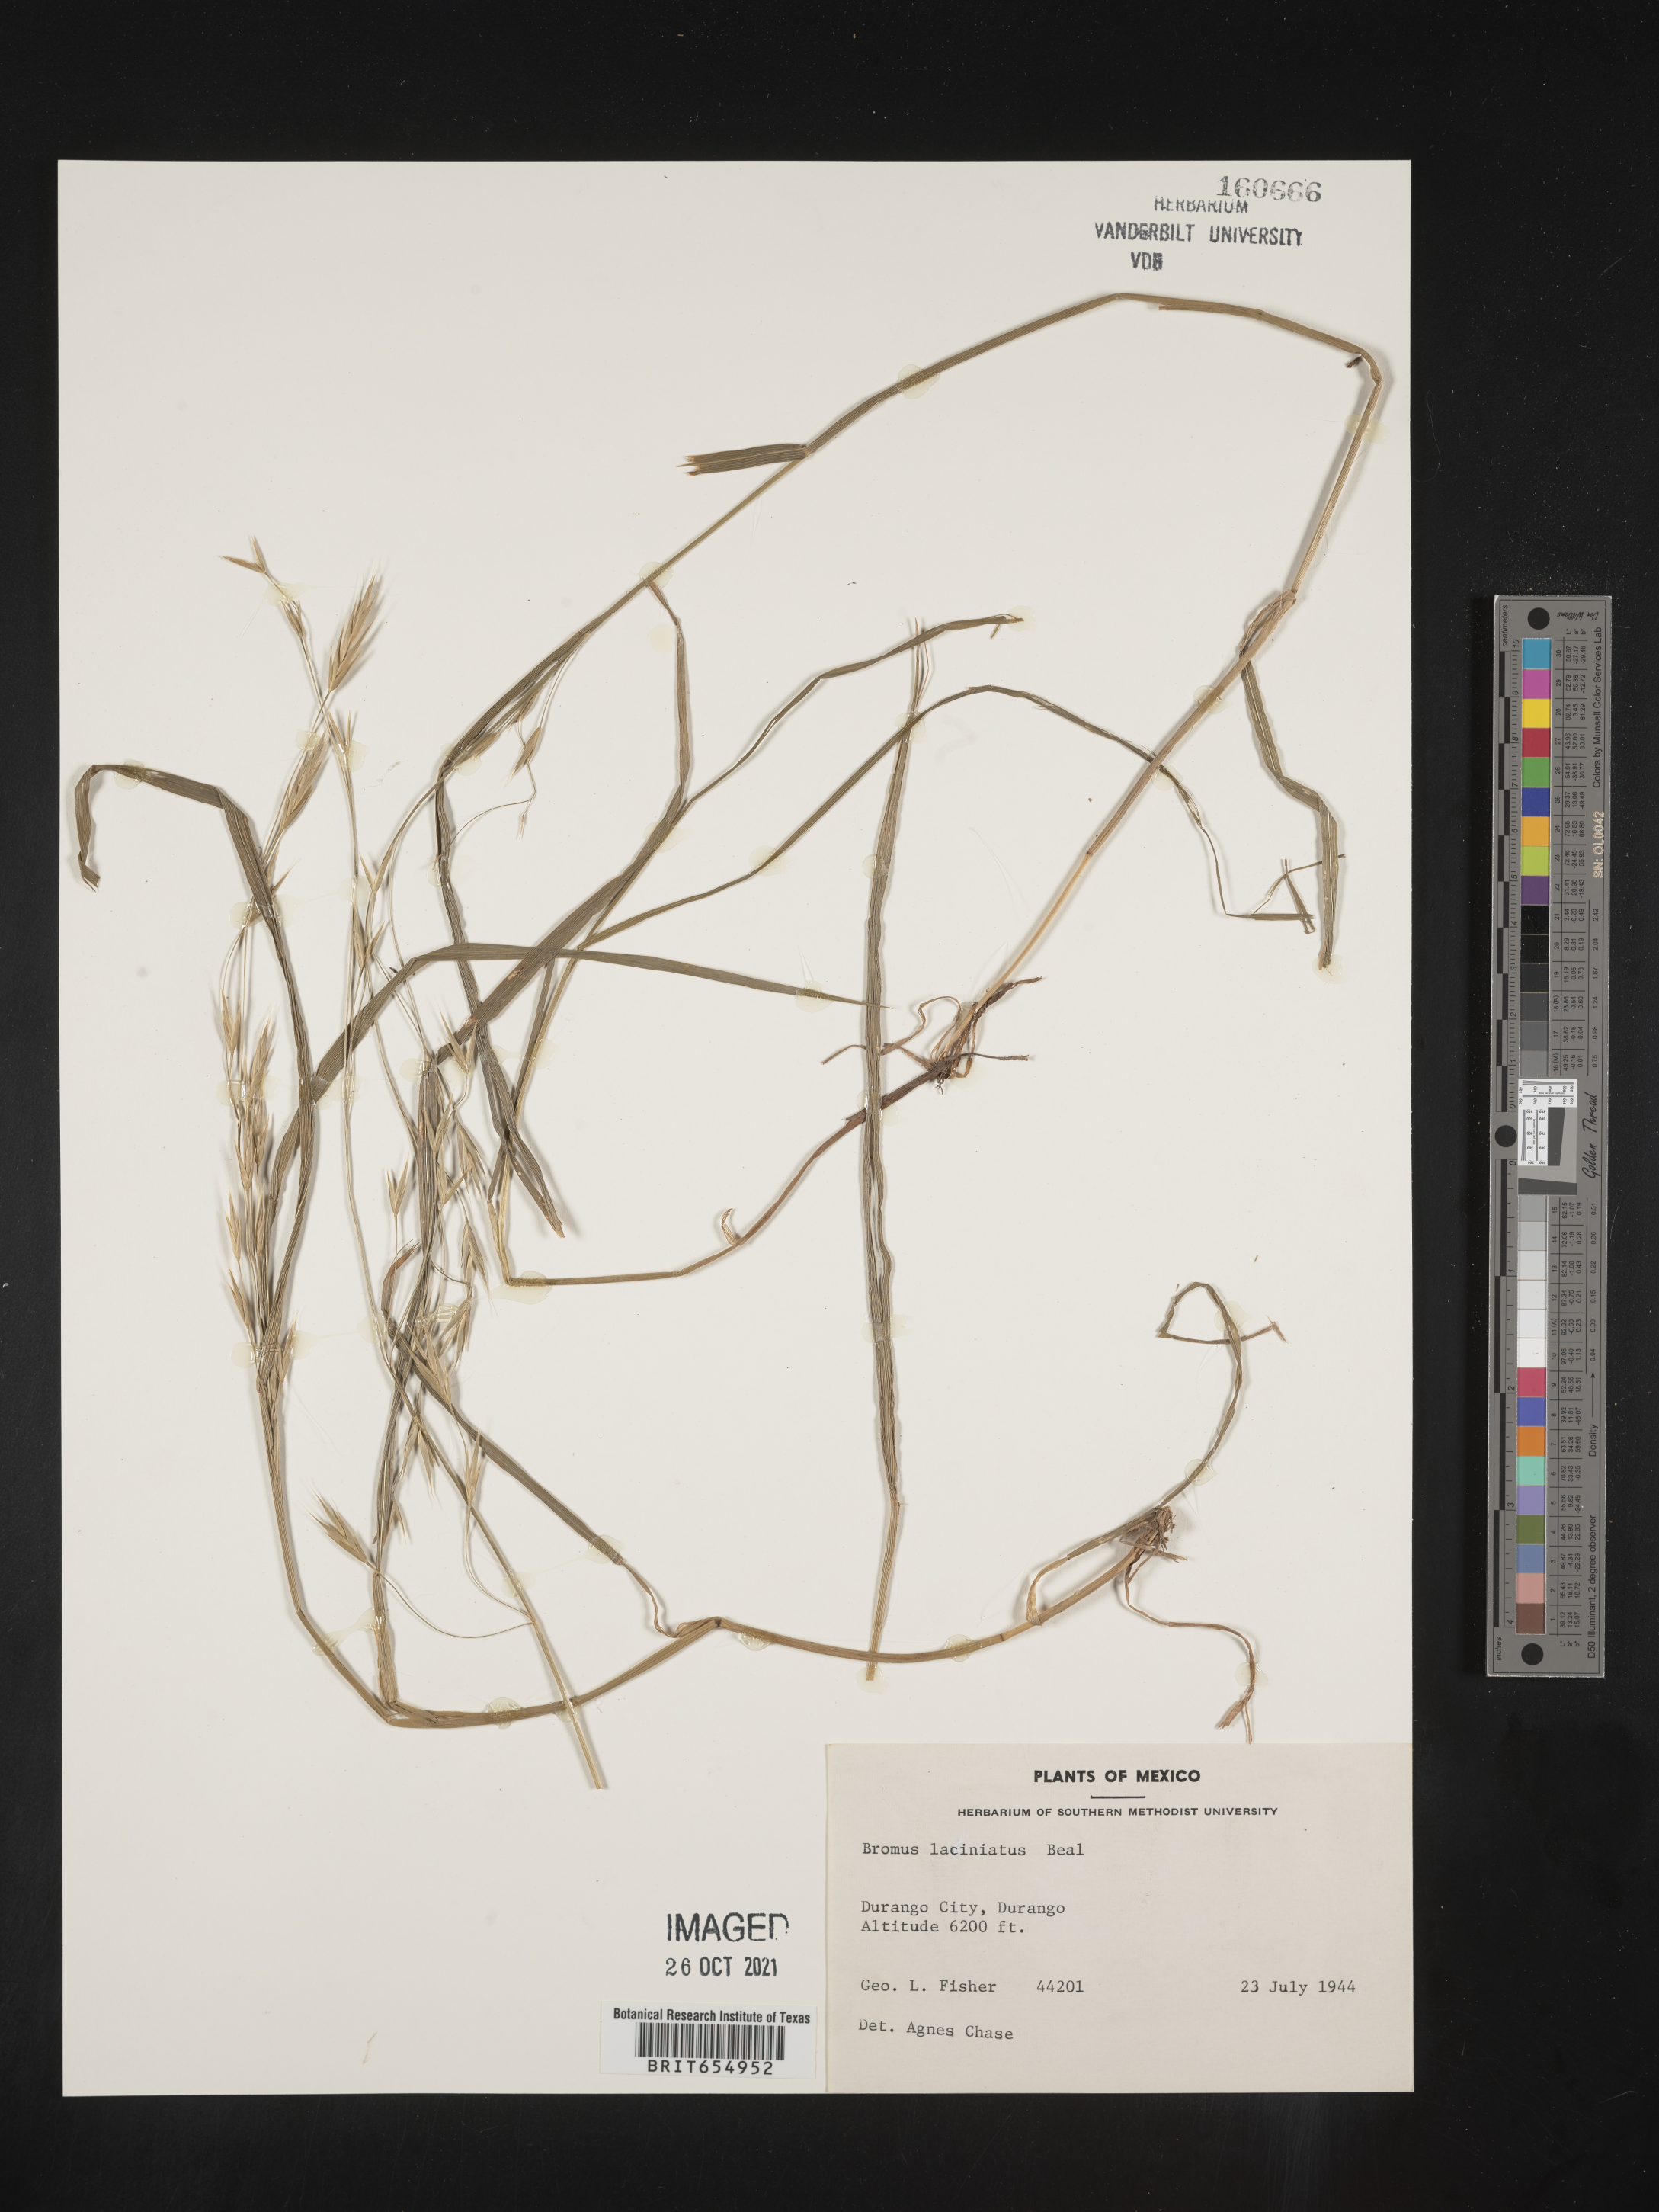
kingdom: Plantae
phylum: Tracheophyta
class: Liliopsida
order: Poales
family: Poaceae
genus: Bromus
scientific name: Bromus
